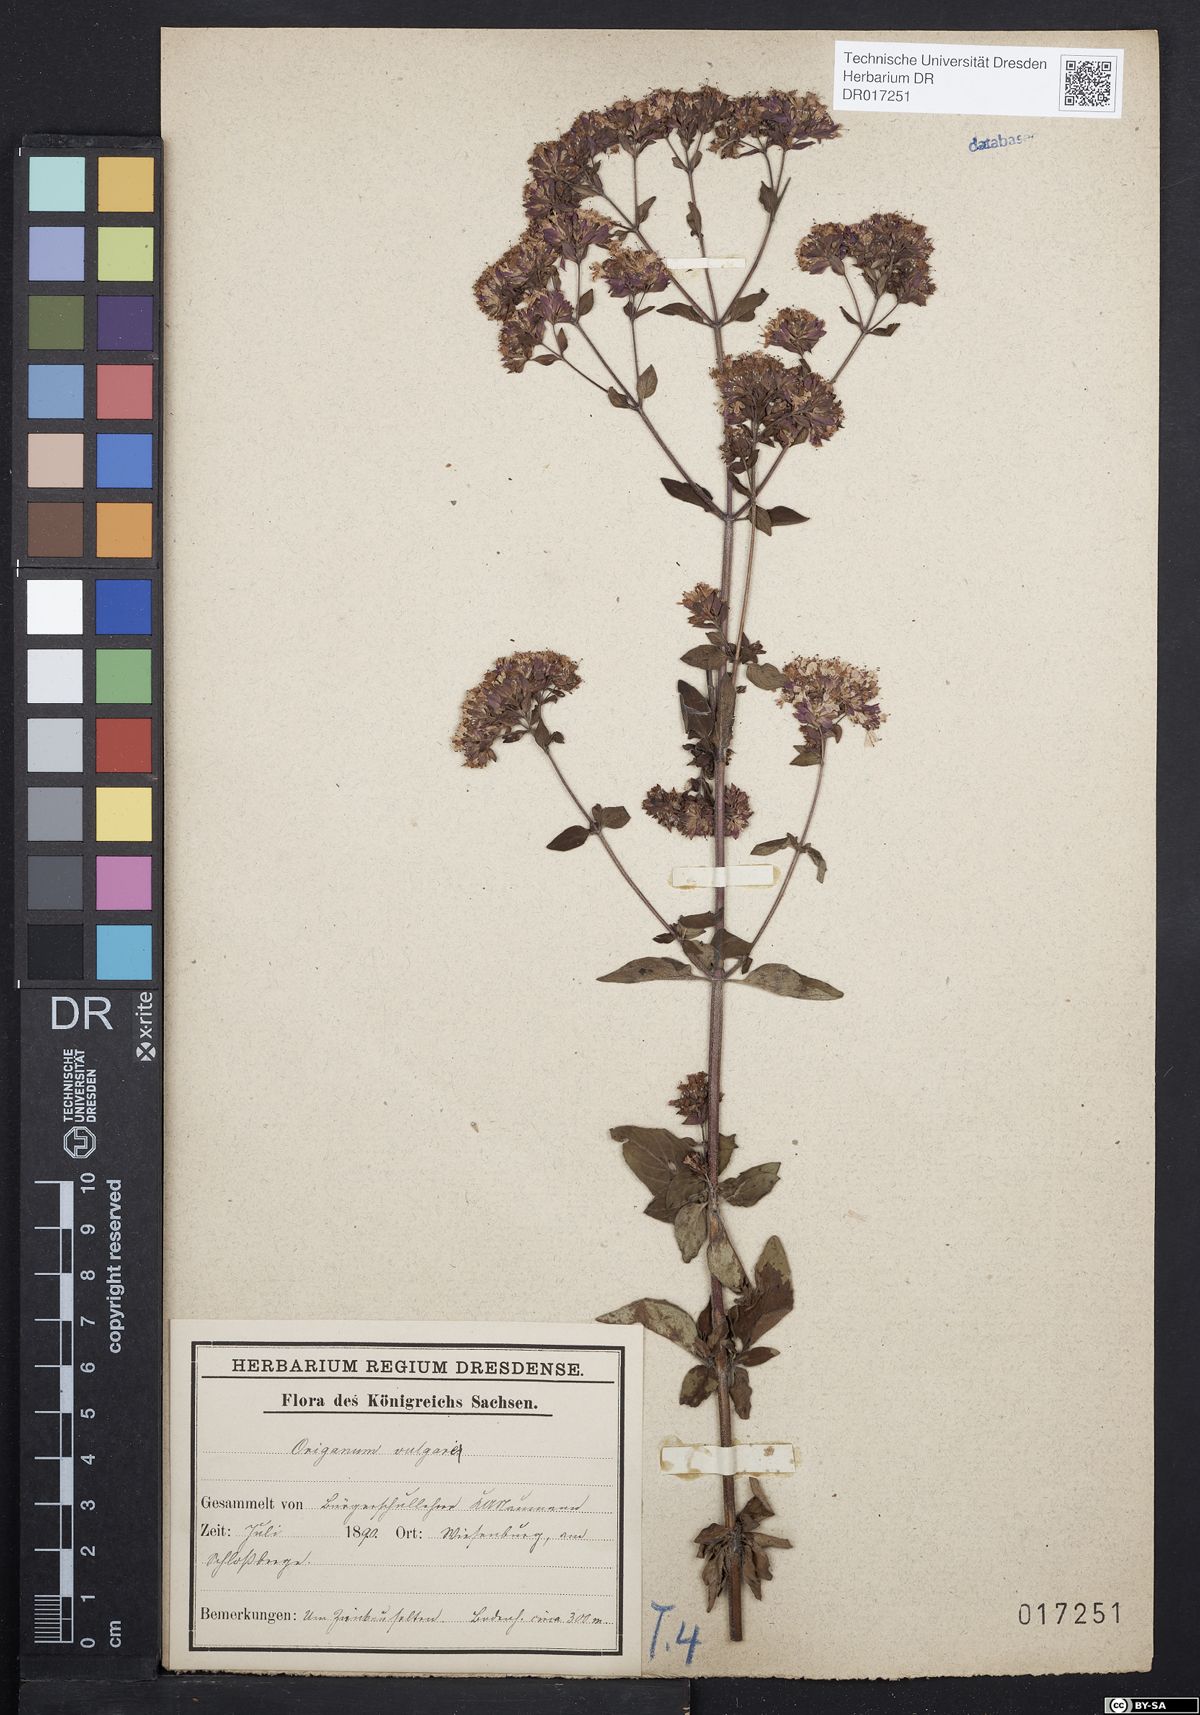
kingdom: Plantae
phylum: Tracheophyta
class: Magnoliopsida
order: Lamiales
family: Lamiaceae
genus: Origanum
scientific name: Origanum vulgare
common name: Wild marjoram
